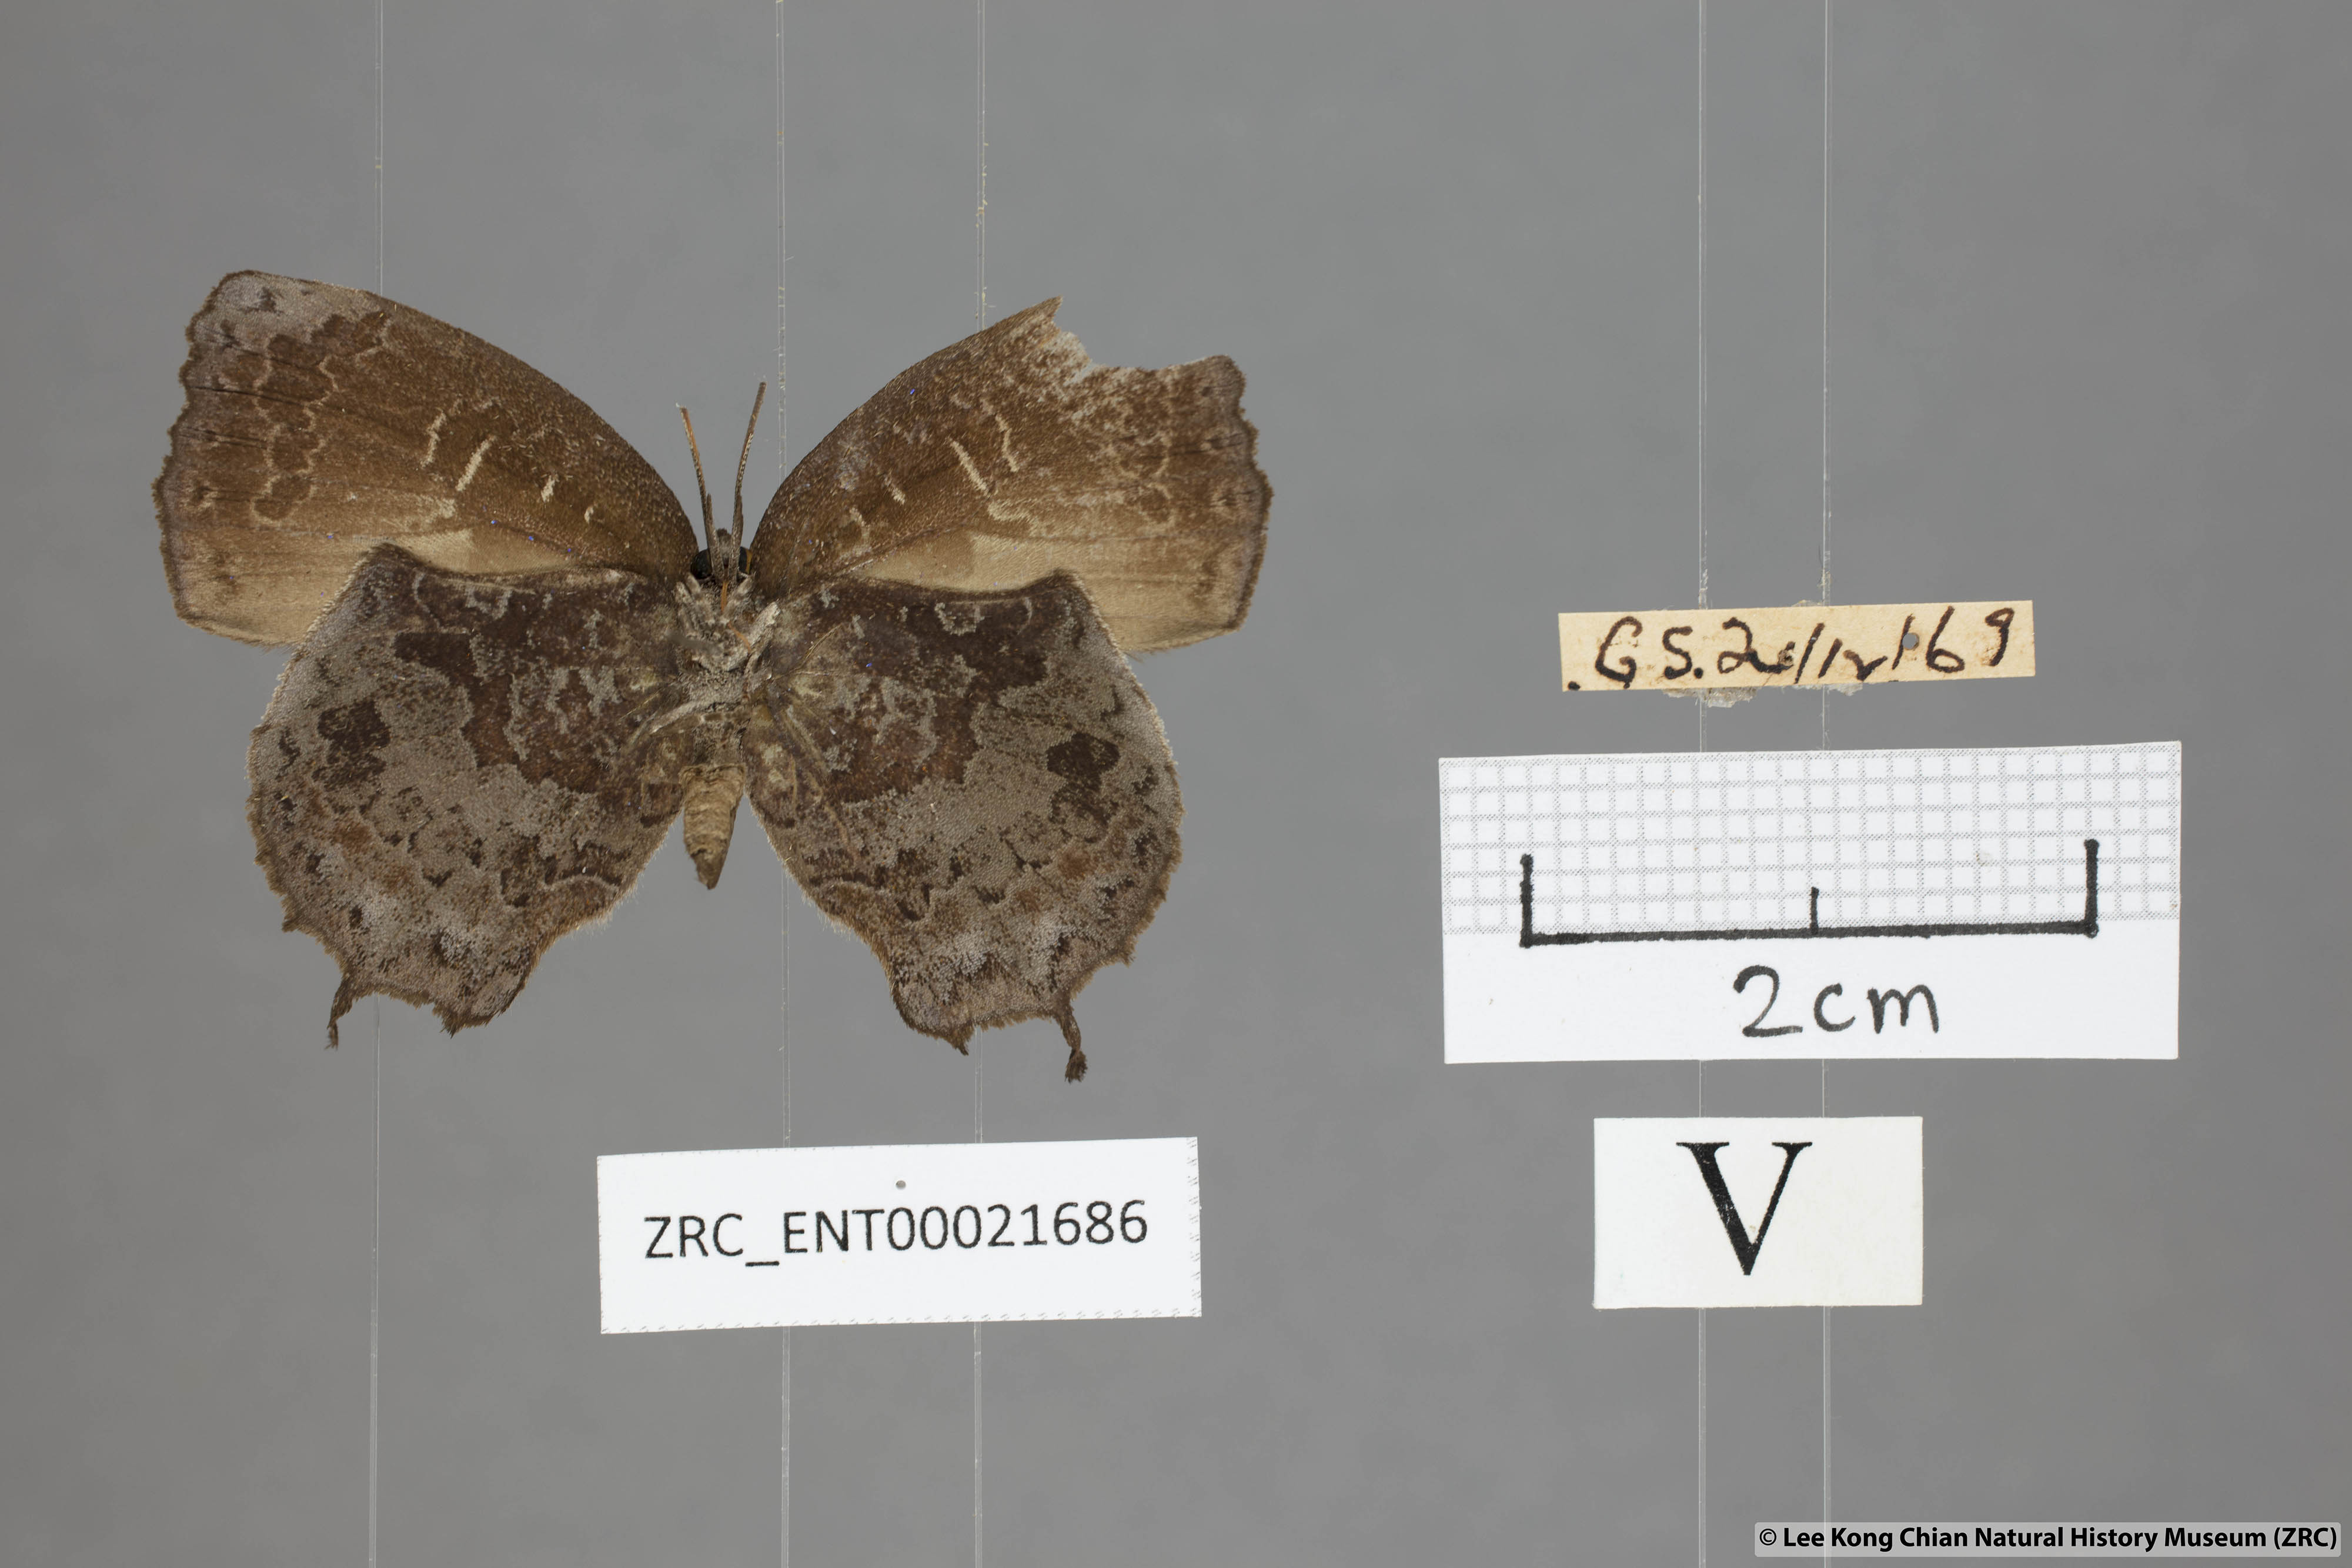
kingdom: Animalia
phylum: Arthropoda
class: Insecta
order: Lepidoptera
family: Lycaenidae
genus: Mahathala
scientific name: Mahathala ameria
